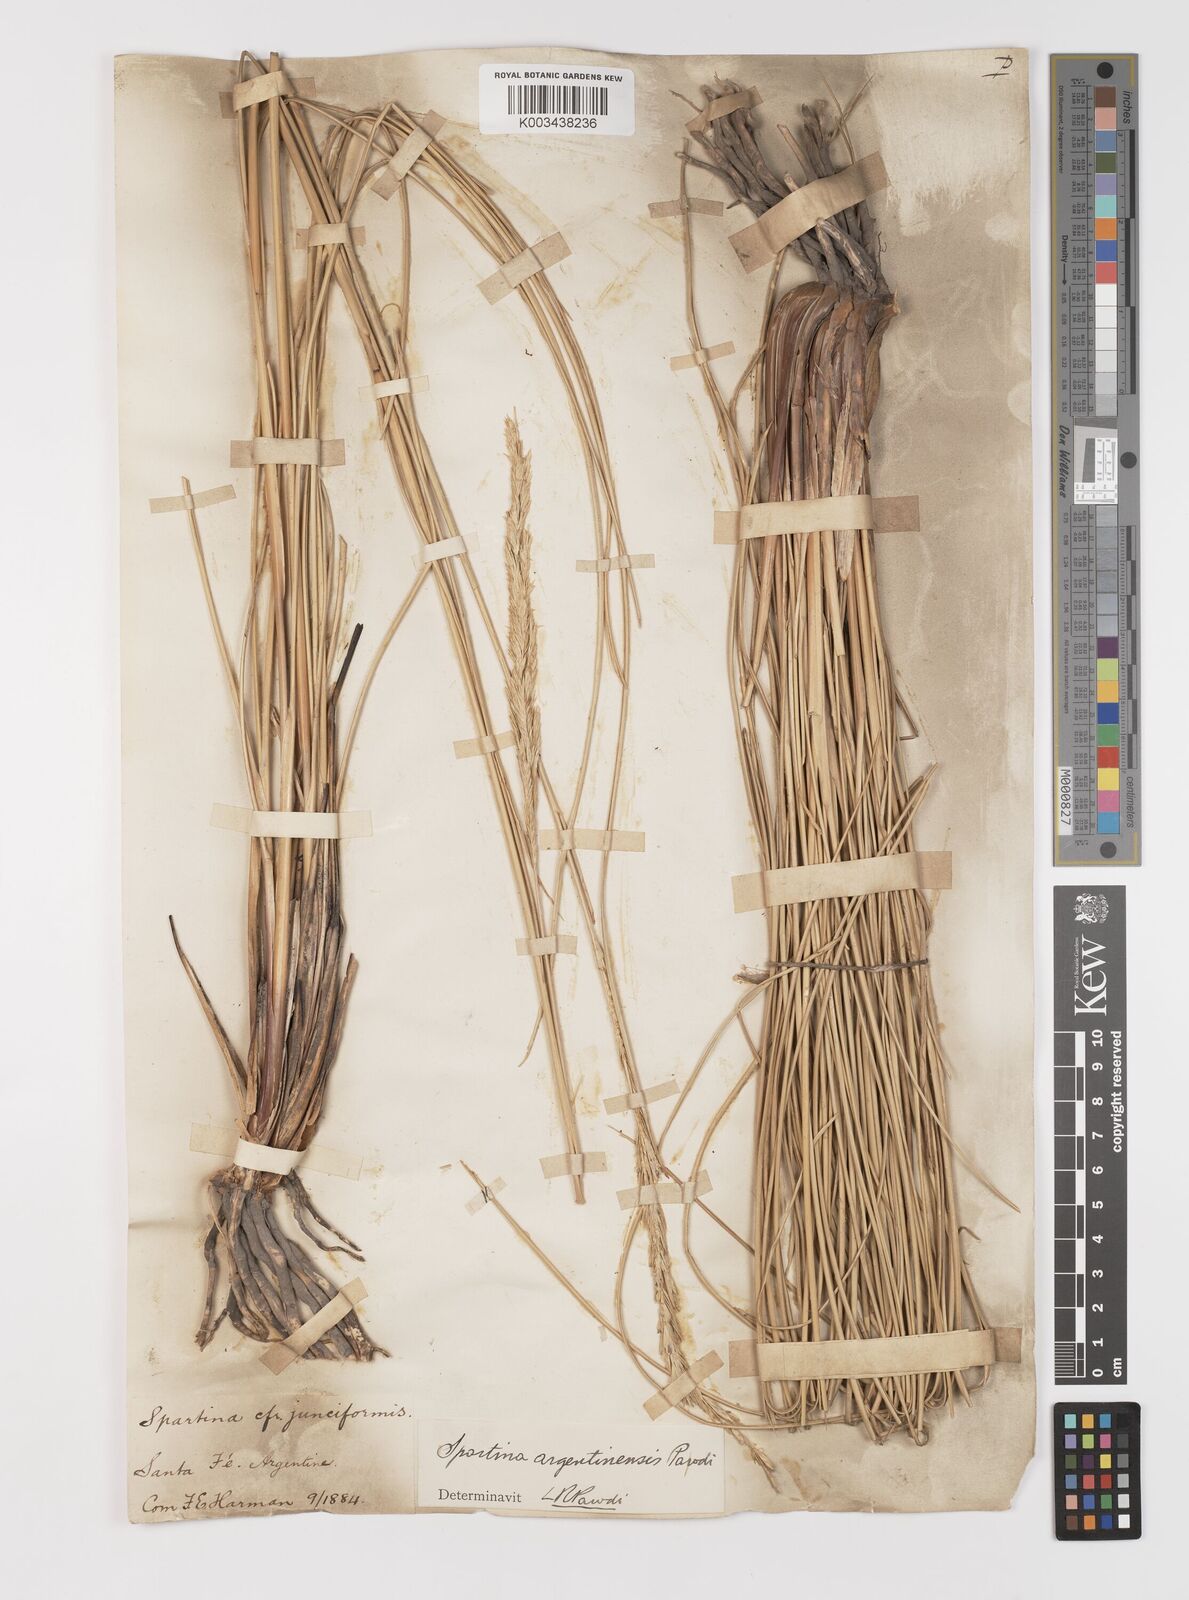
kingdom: Plantae
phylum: Tracheophyta
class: Liliopsida
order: Poales
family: Poaceae
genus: Sporobolus
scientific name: Sporobolus spartinae
